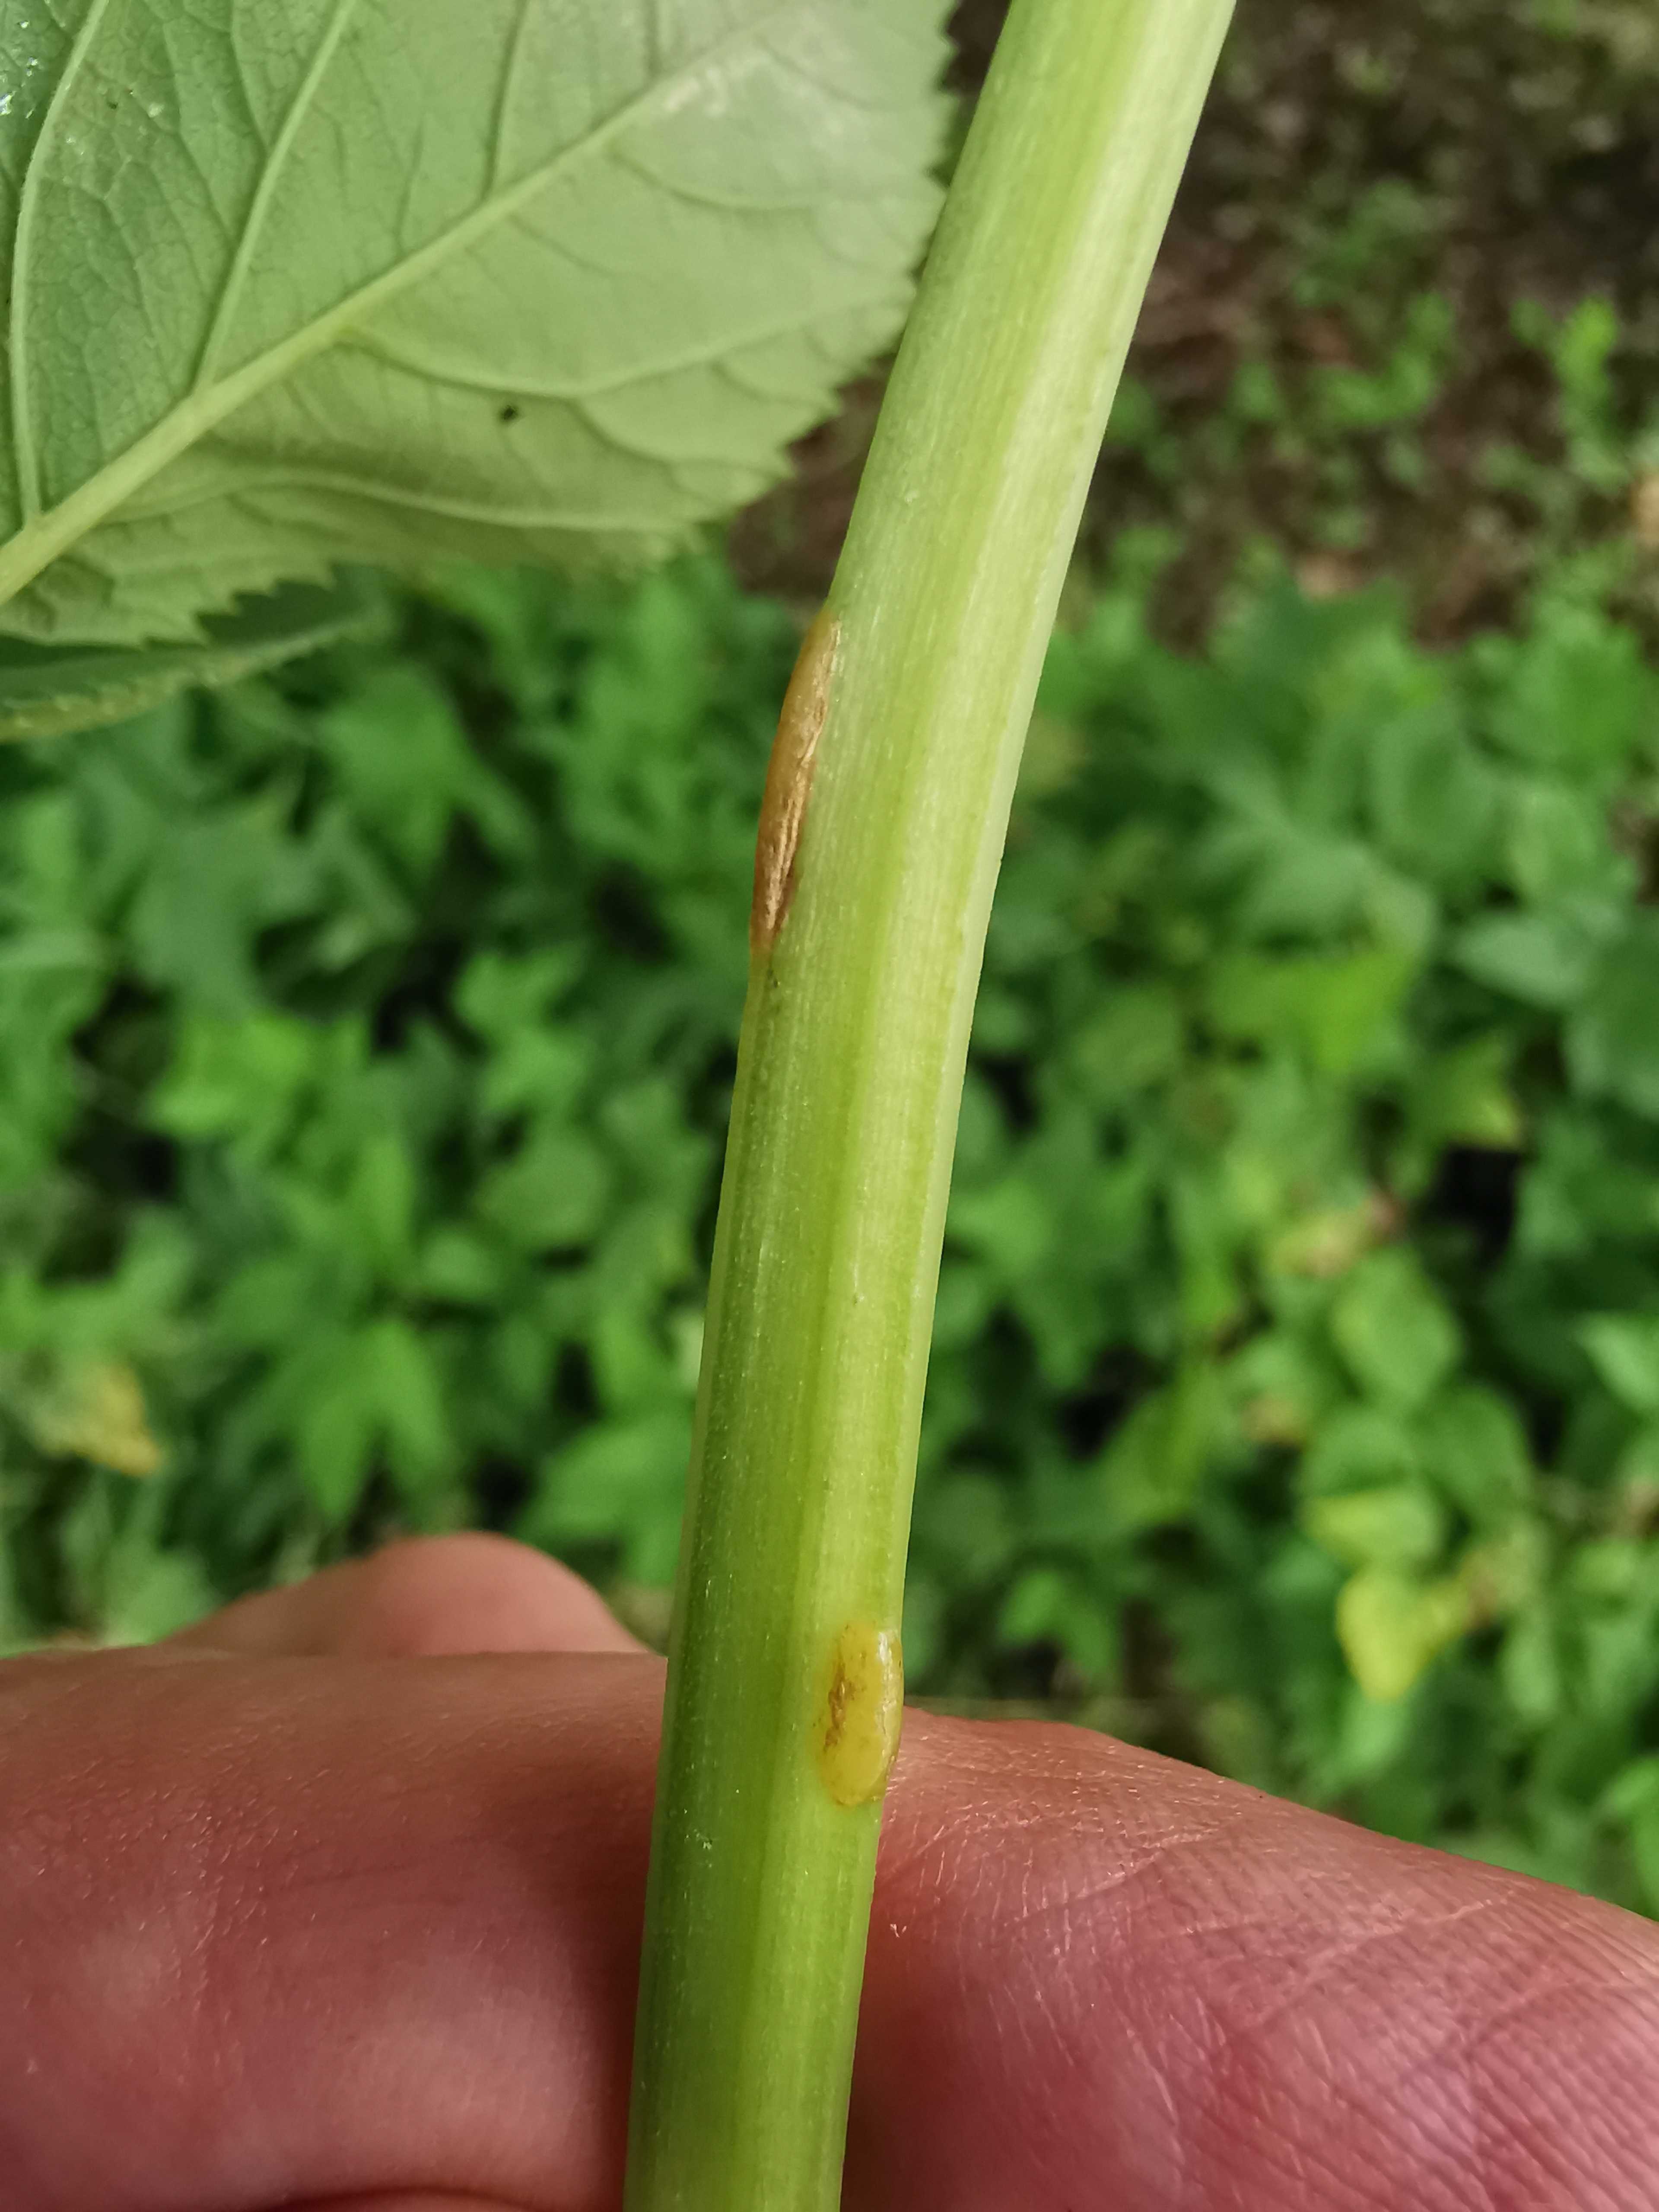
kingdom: Fungi
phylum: Ascomycota
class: Taphrinomycetes
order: Taphrinales
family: Taphrinaceae
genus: Protomyces
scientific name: Protomyces macrosporus
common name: skvalderkål-vablesæk
